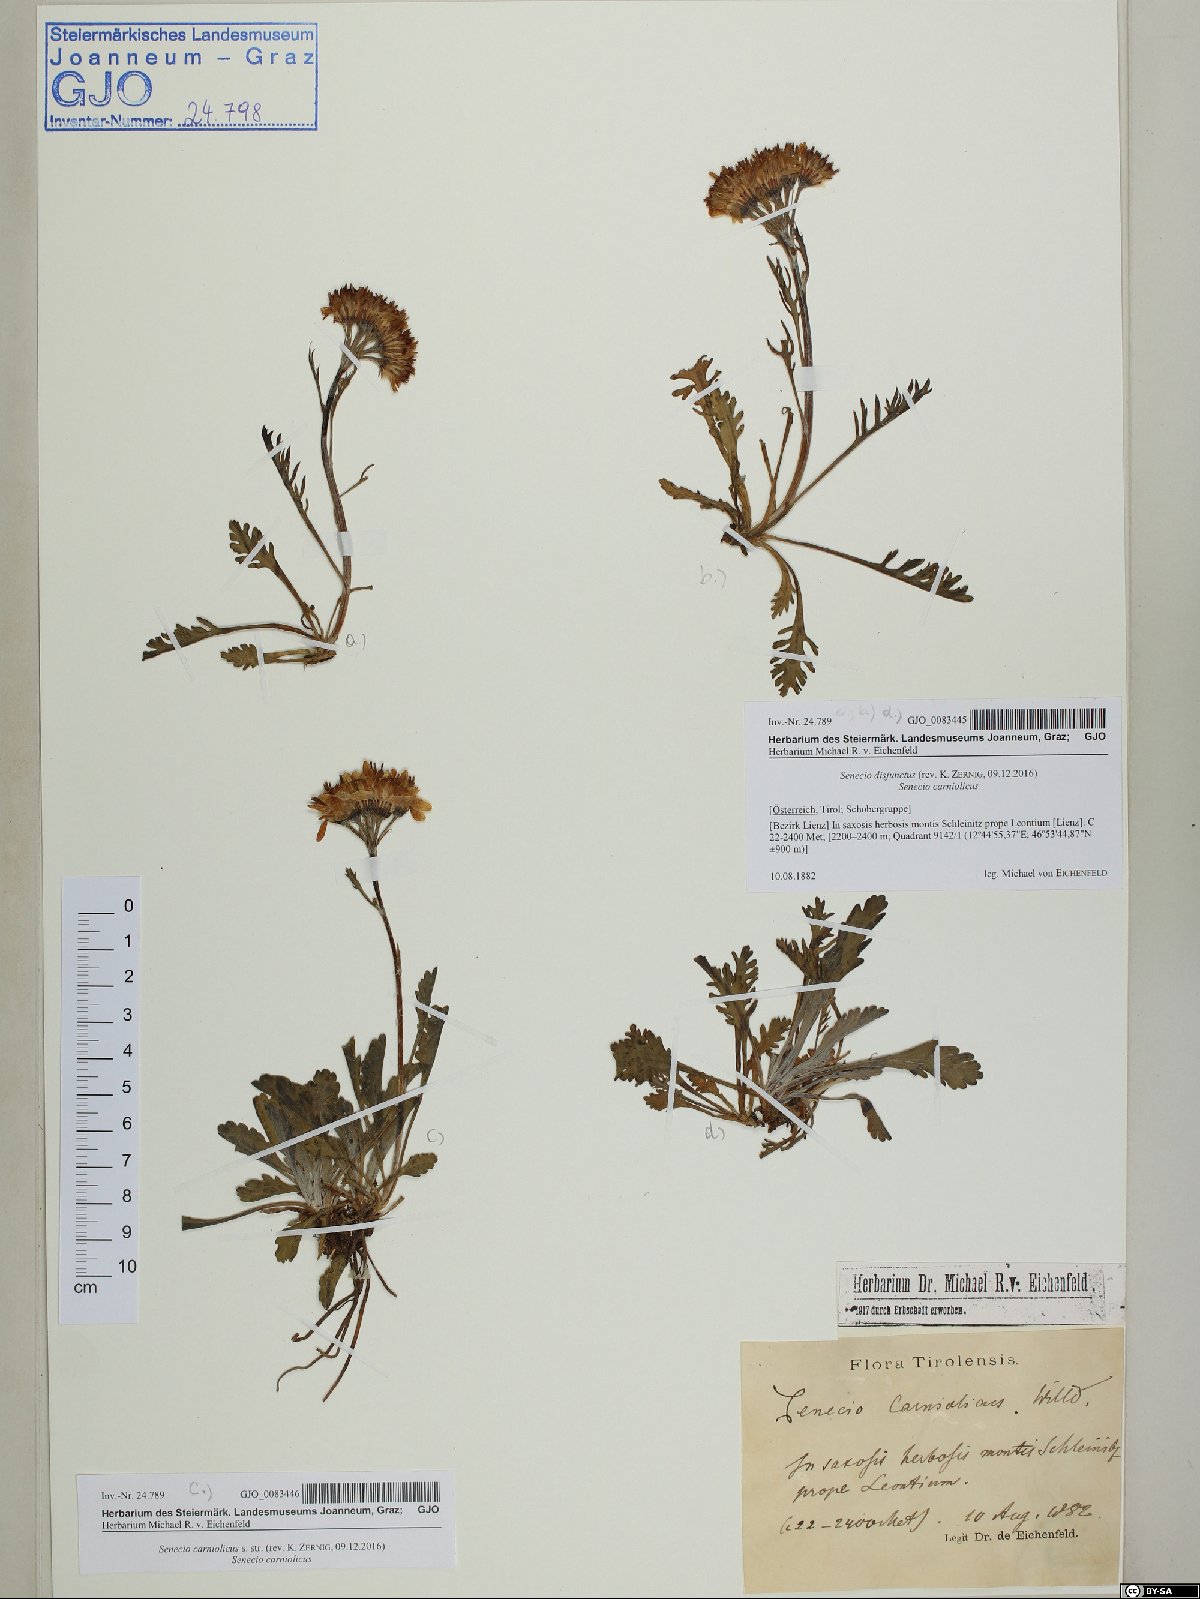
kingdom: Plantae
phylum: Tracheophyta
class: Magnoliopsida
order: Asterales
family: Asteraceae
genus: Jacobaea
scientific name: Jacobaea carniolica
